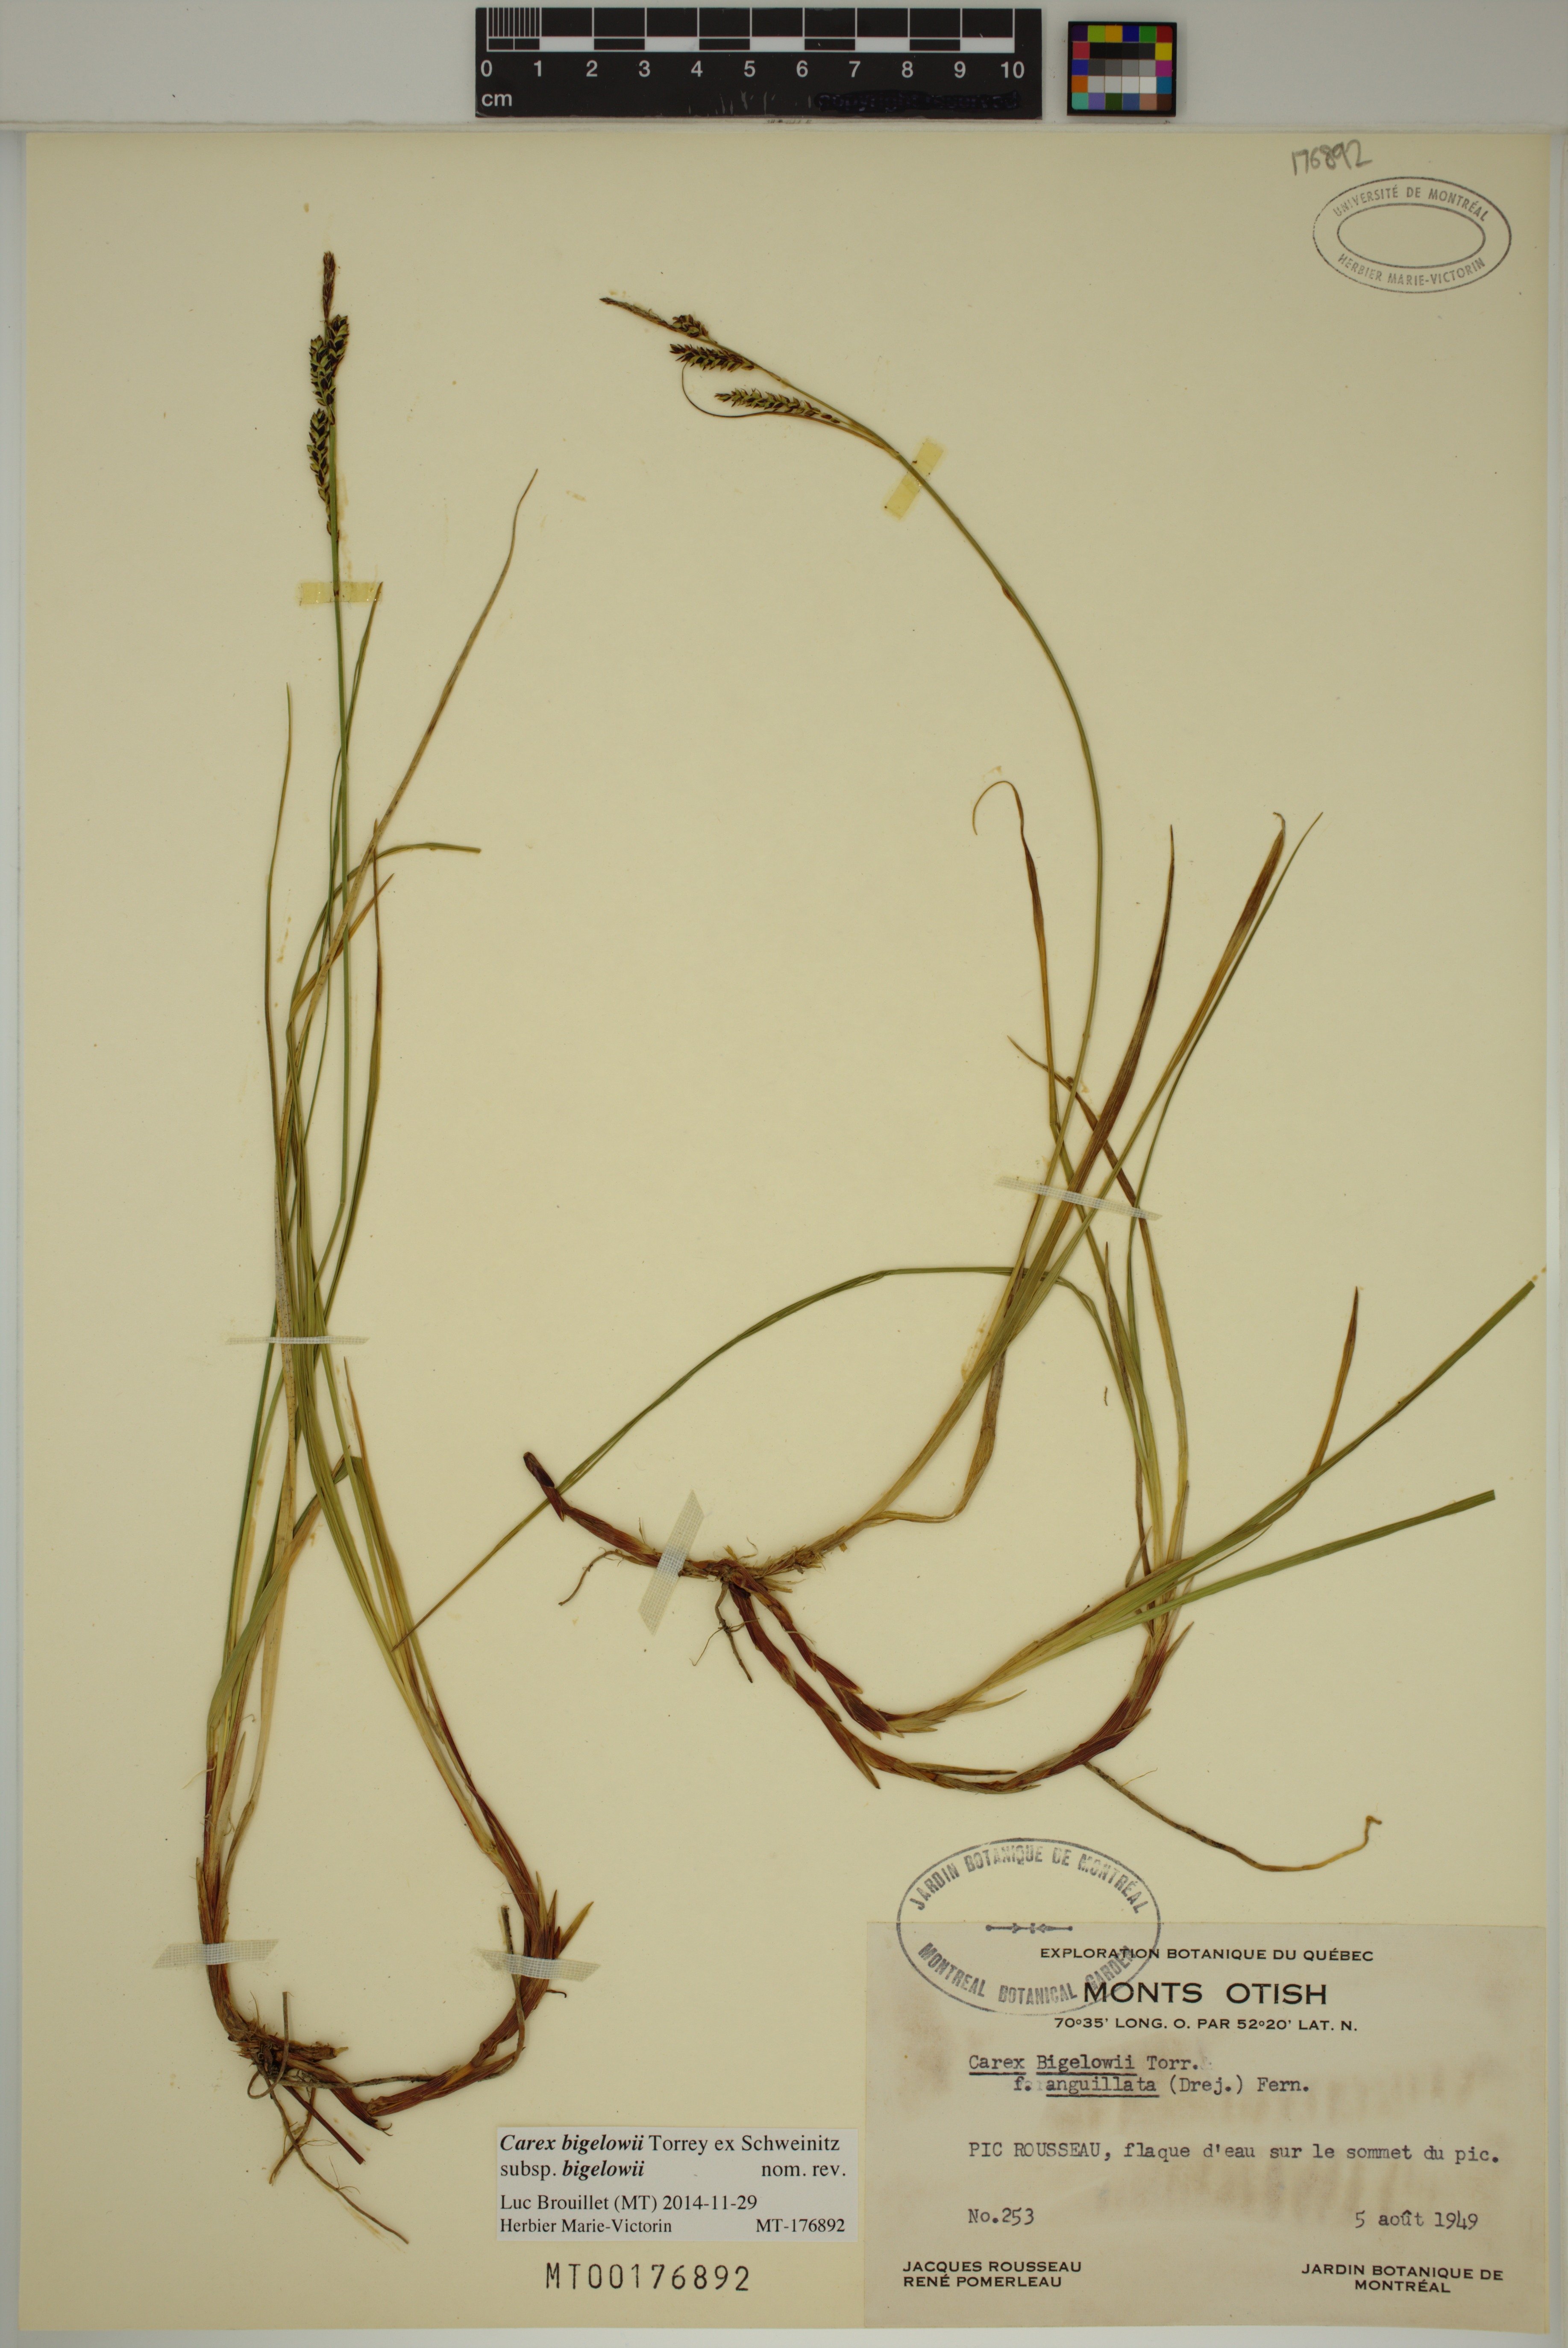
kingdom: Plantae
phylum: Tracheophyta
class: Liliopsida
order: Poales
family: Cyperaceae
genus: Carex
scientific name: Carex bigelowii
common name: Stiff sedge
